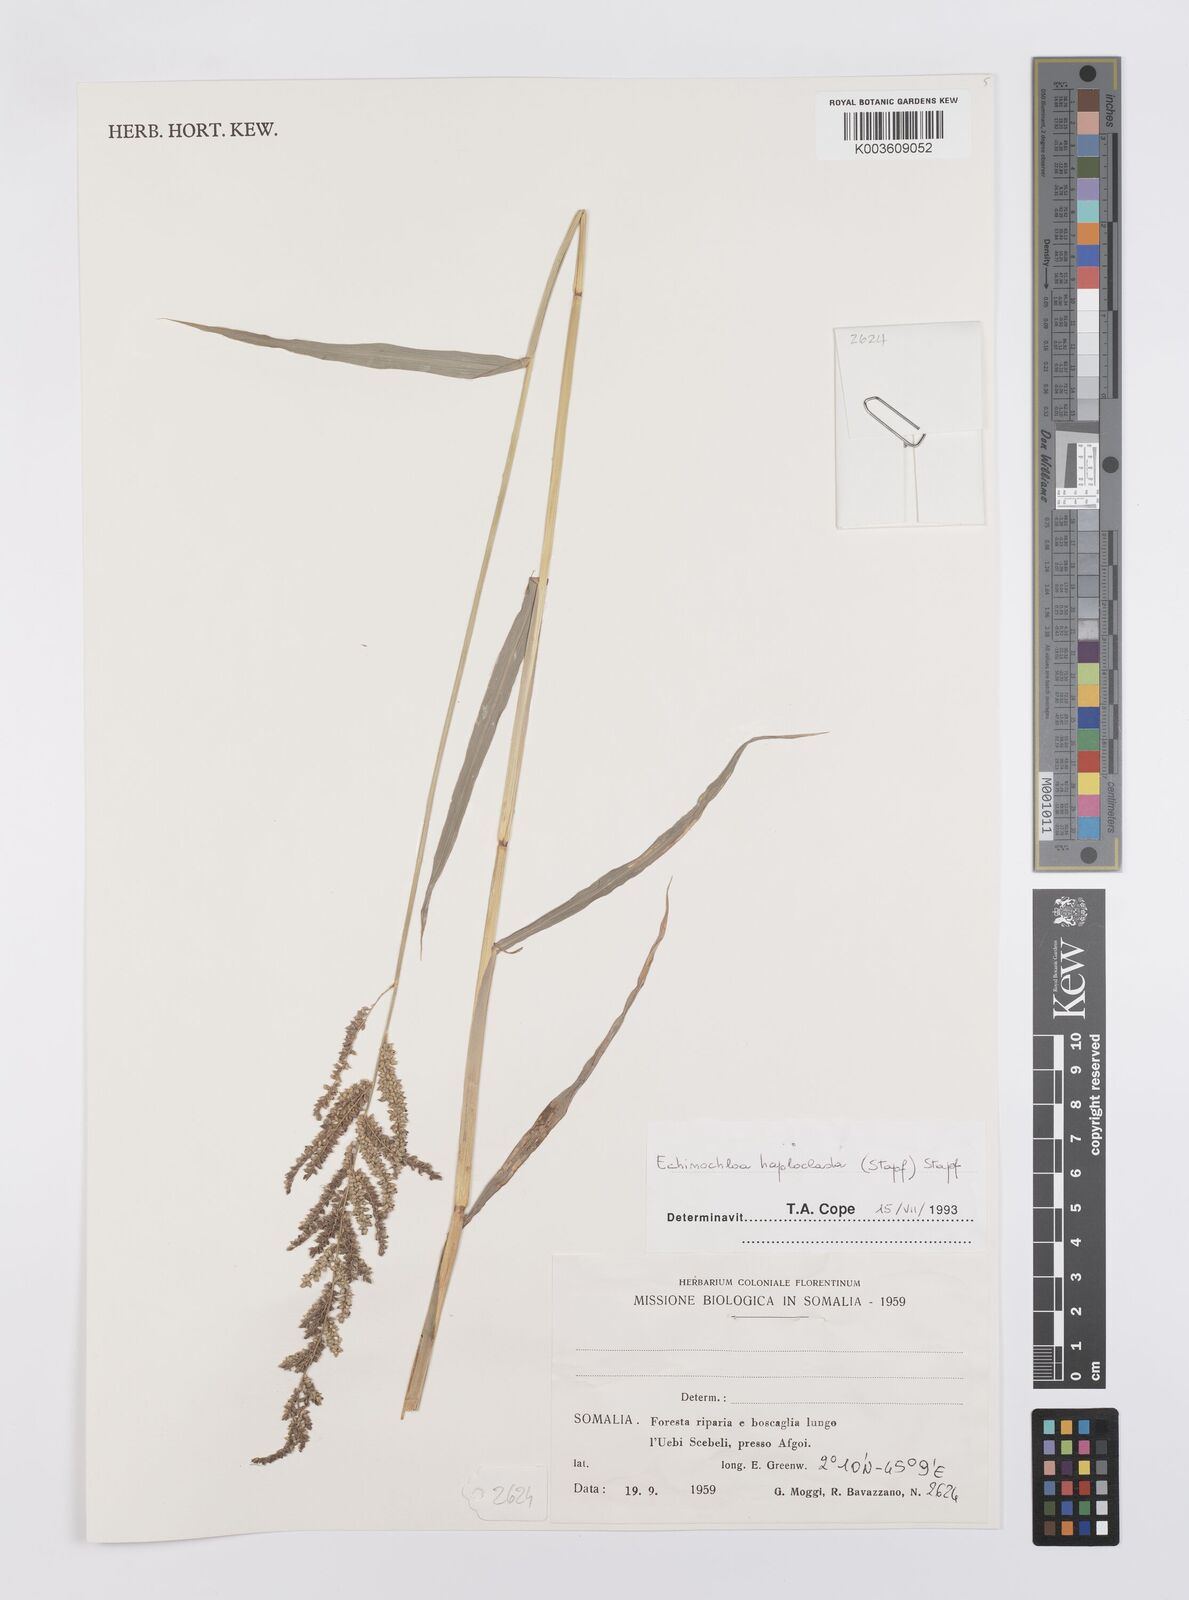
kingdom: Plantae
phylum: Tracheophyta
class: Liliopsida
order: Poales
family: Poaceae
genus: Echinochloa
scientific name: Echinochloa haploclada
